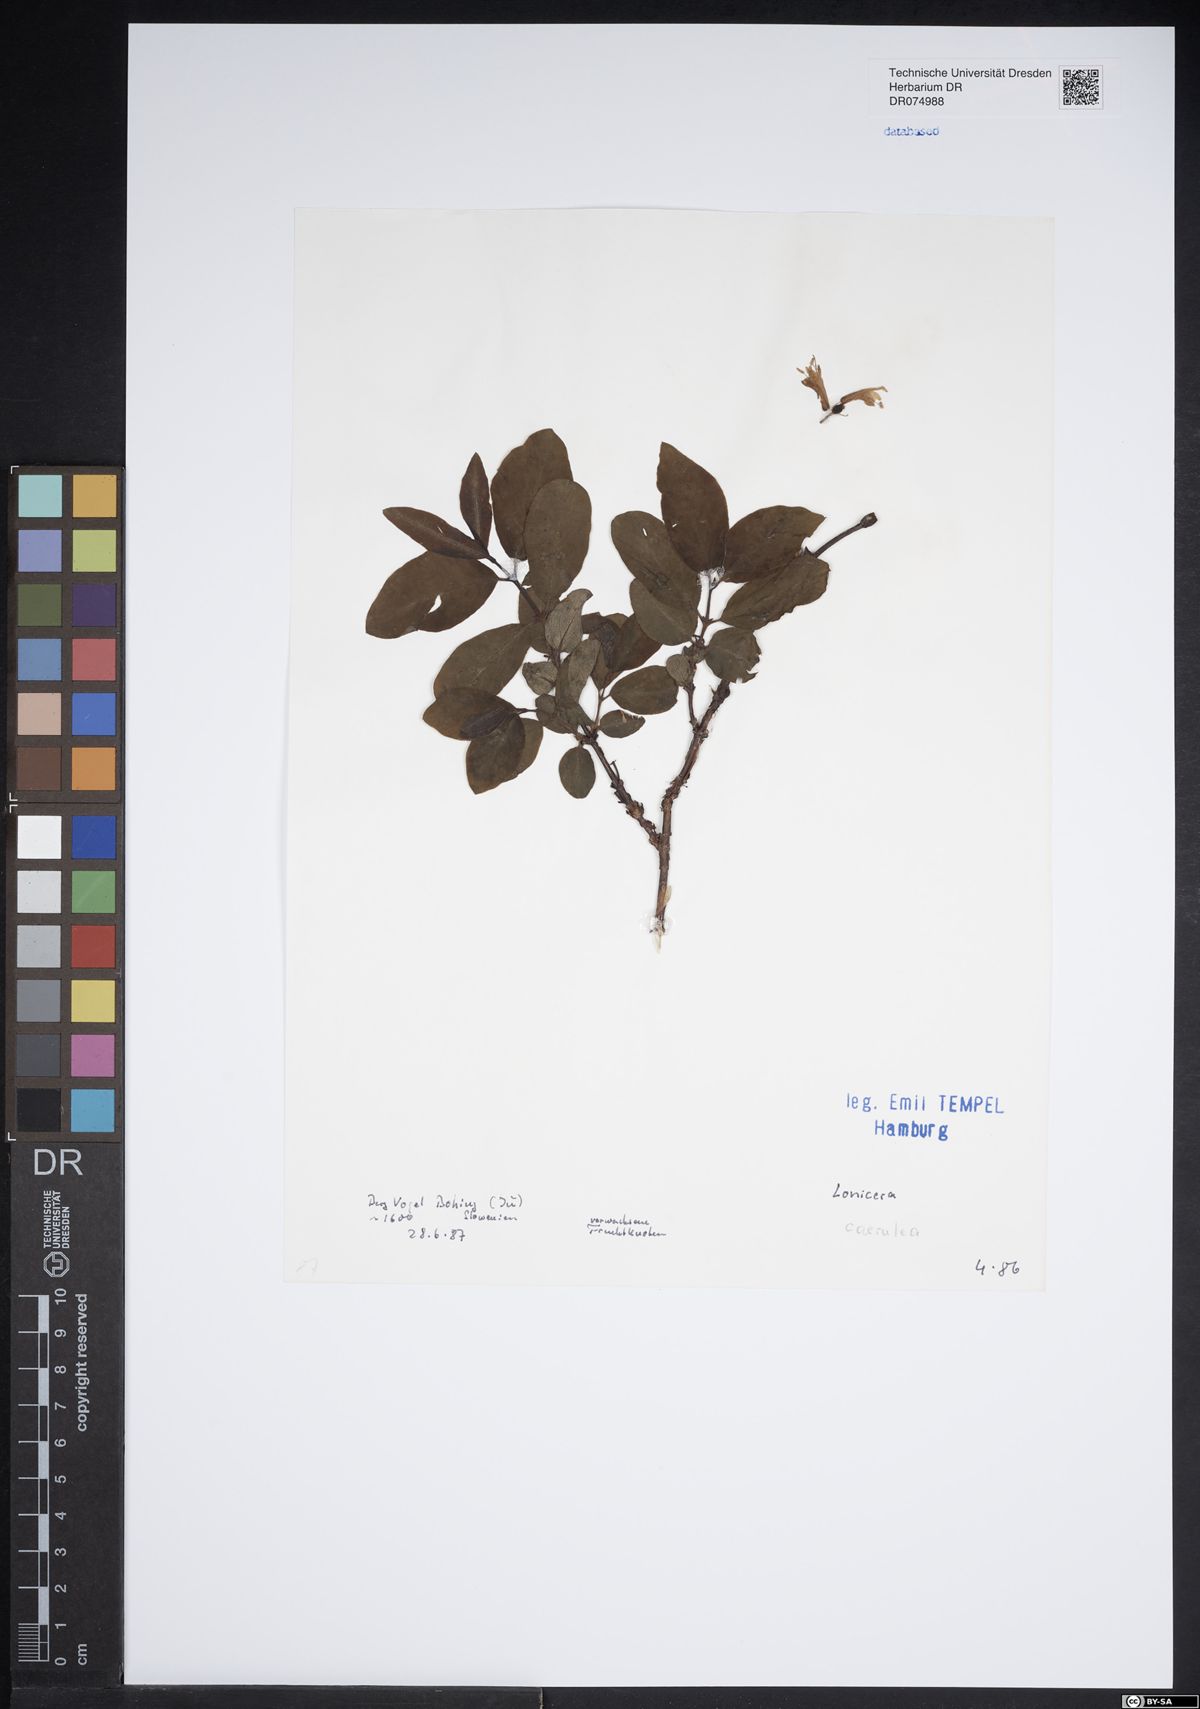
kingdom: Plantae
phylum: Tracheophyta
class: Magnoliopsida
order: Dipsacales
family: Caprifoliaceae
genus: Lonicera
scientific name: Lonicera caerulea
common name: Blue honeysuckle
